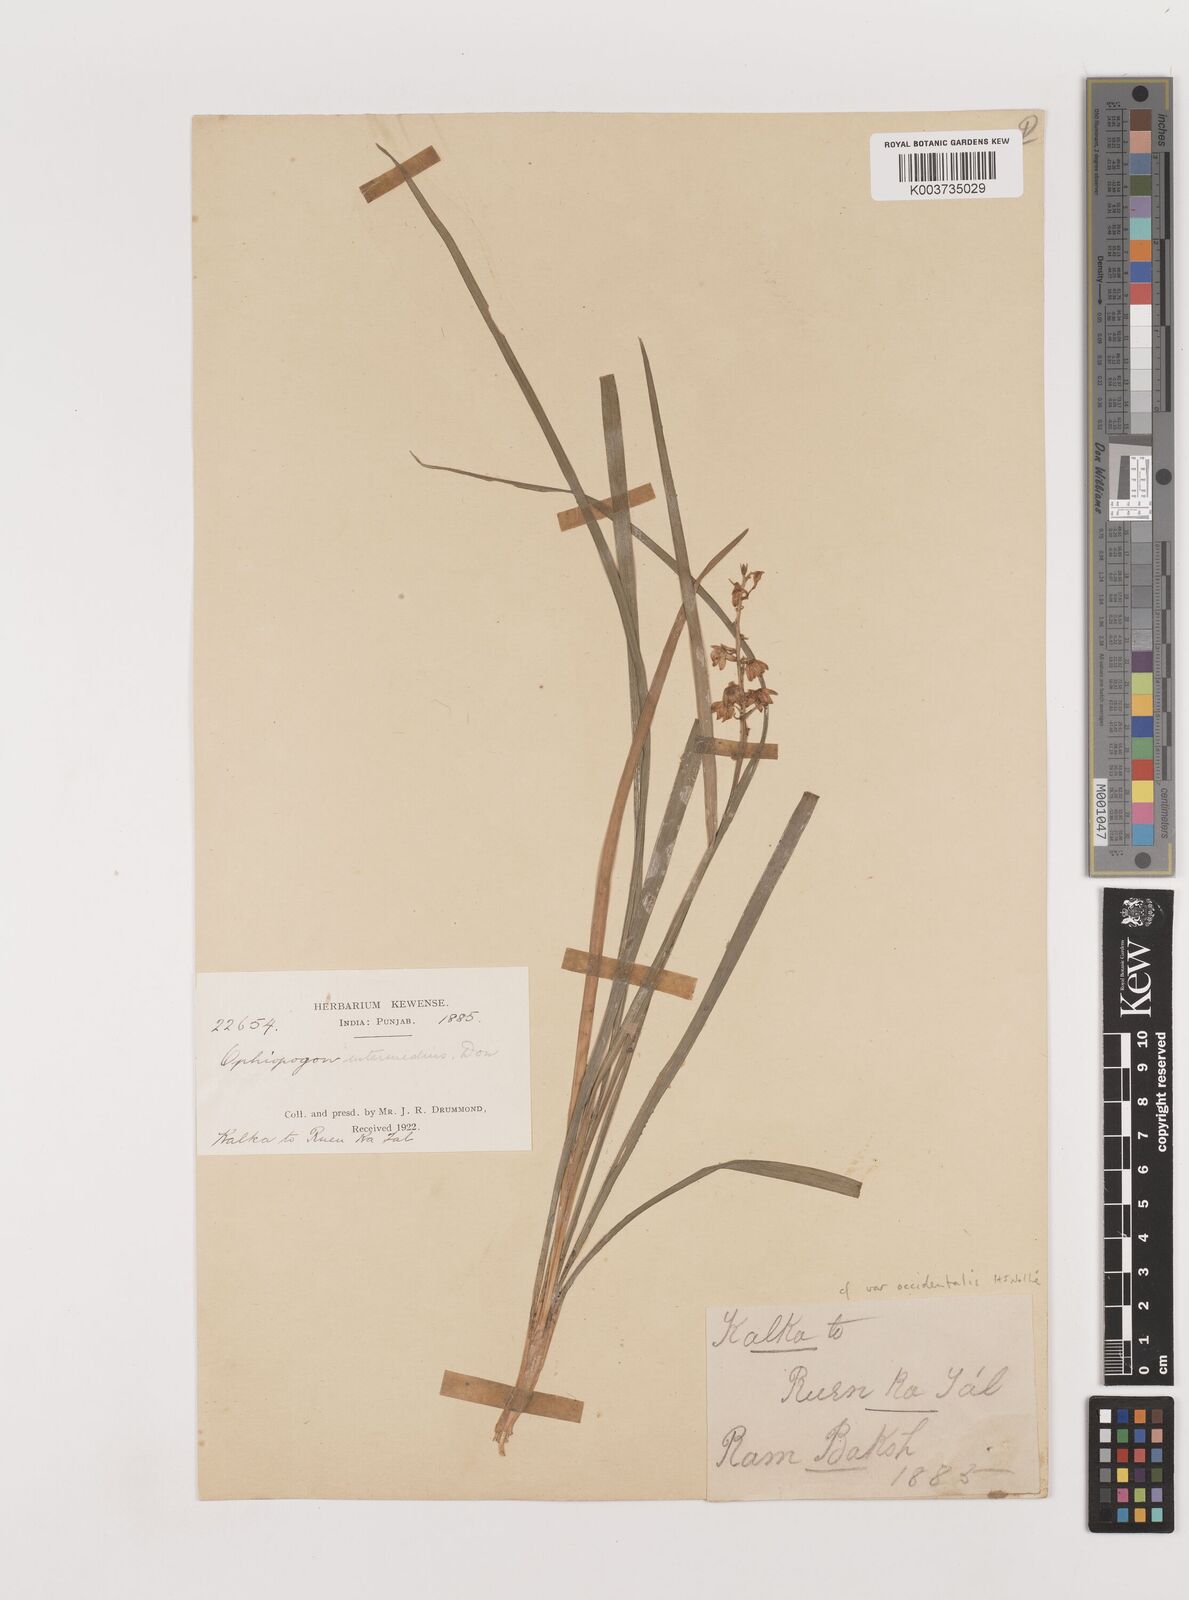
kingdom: Plantae
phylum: Tracheophyta
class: Liliopsida
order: Asparagales
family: Asparagaceae
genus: Ophiopogon
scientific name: Ophiopogon intermedius
